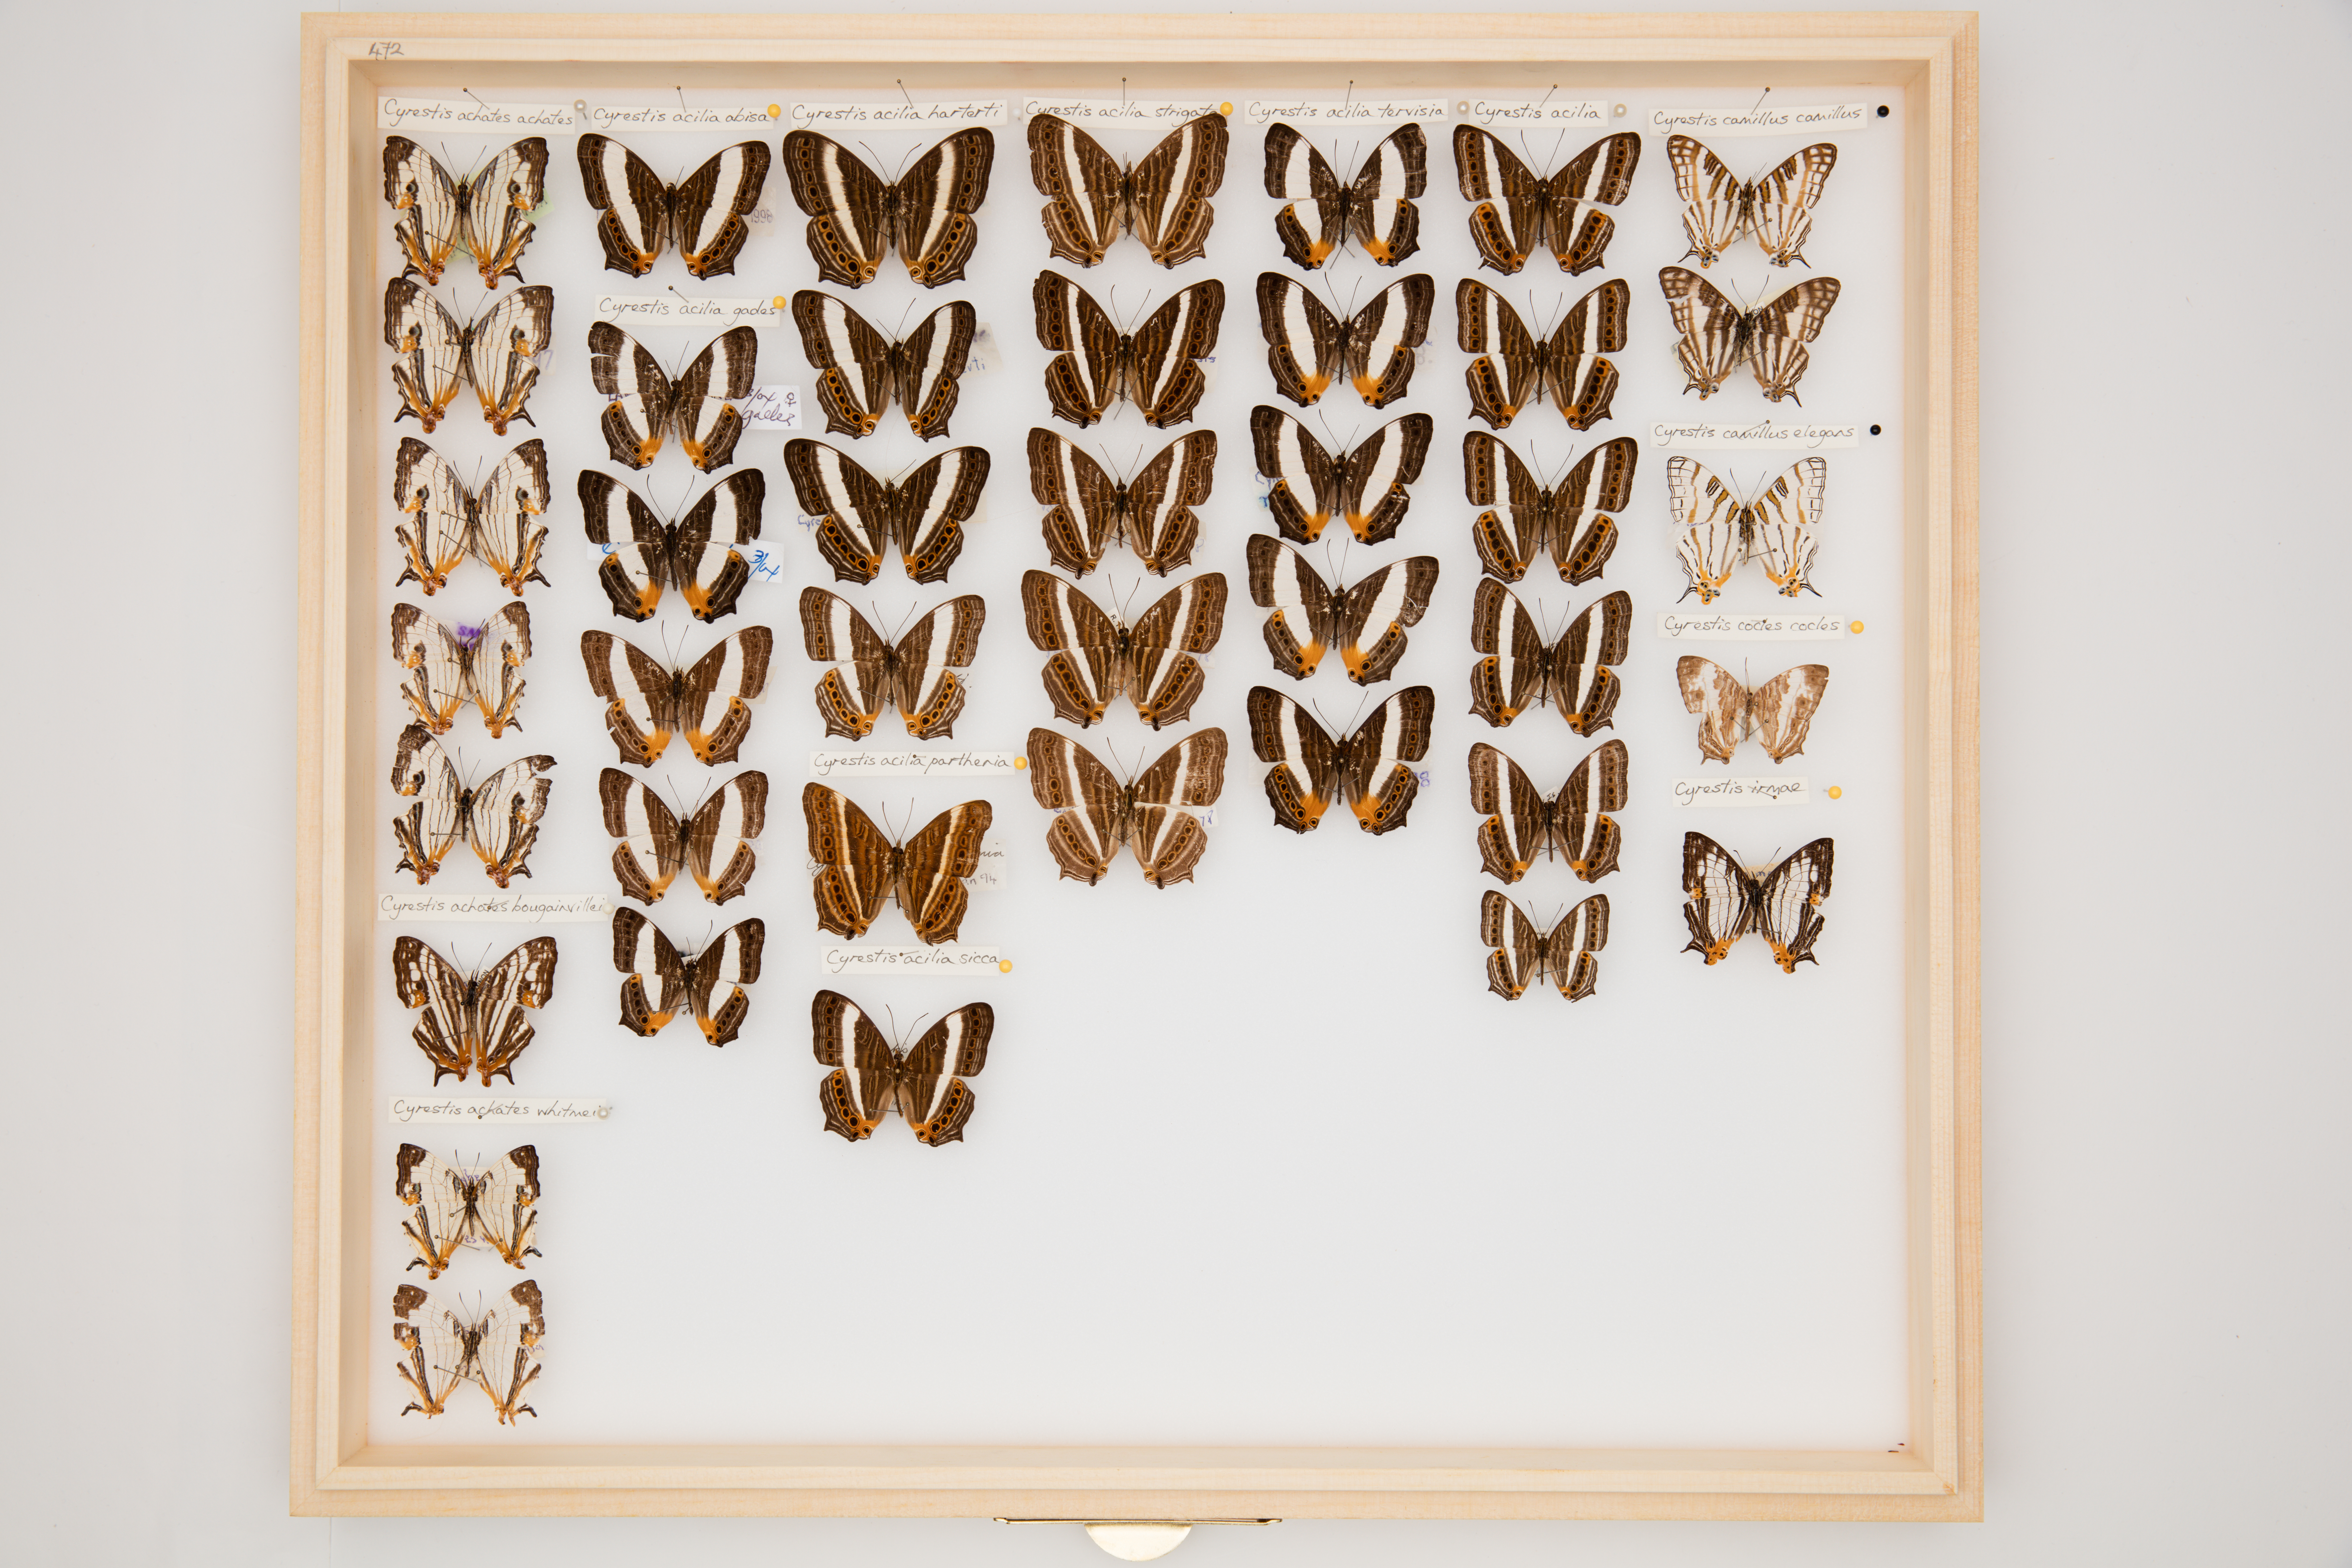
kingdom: Animalia
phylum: Arthropoda
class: Insecta
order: Lepidoptera
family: Nymphalidae
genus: Cyrestis
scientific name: Cyrestis acilia
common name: Godart's map butterfly
